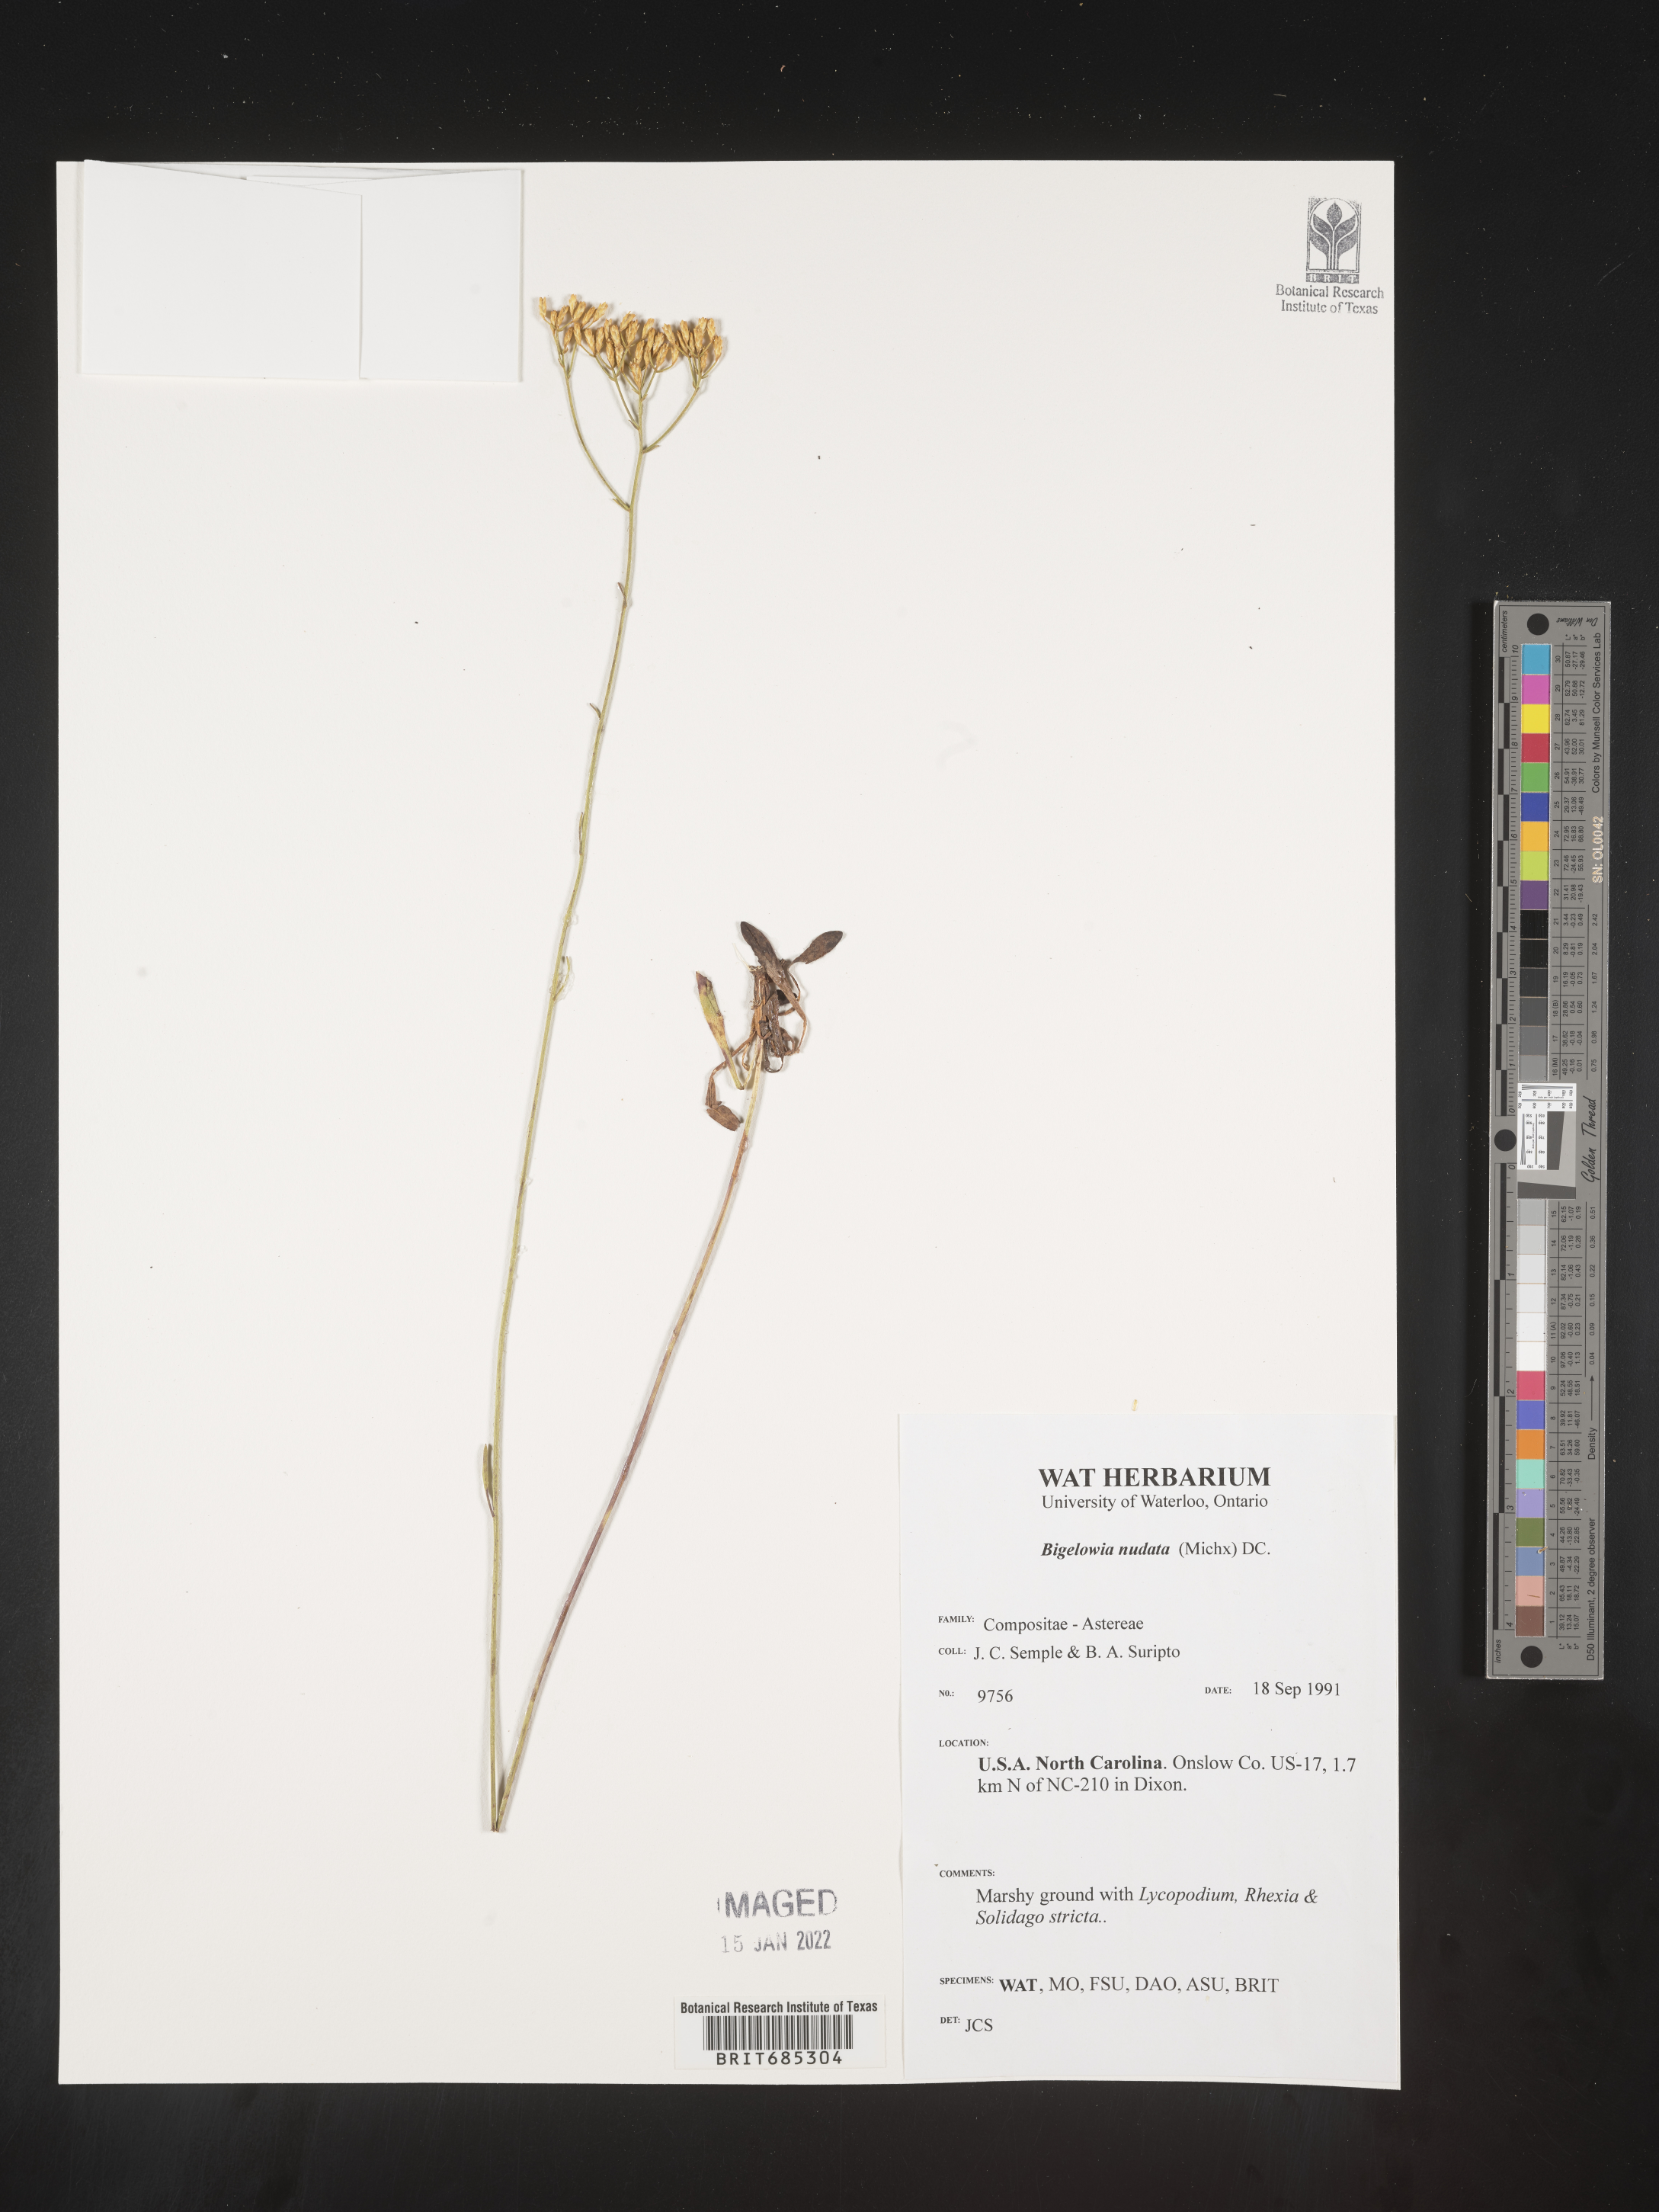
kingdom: Plantae
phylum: Tracheophyta
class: Magnoliopsida
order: Asterales
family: Asteraceae
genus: Bigelowia
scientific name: Bigelowia nudata
